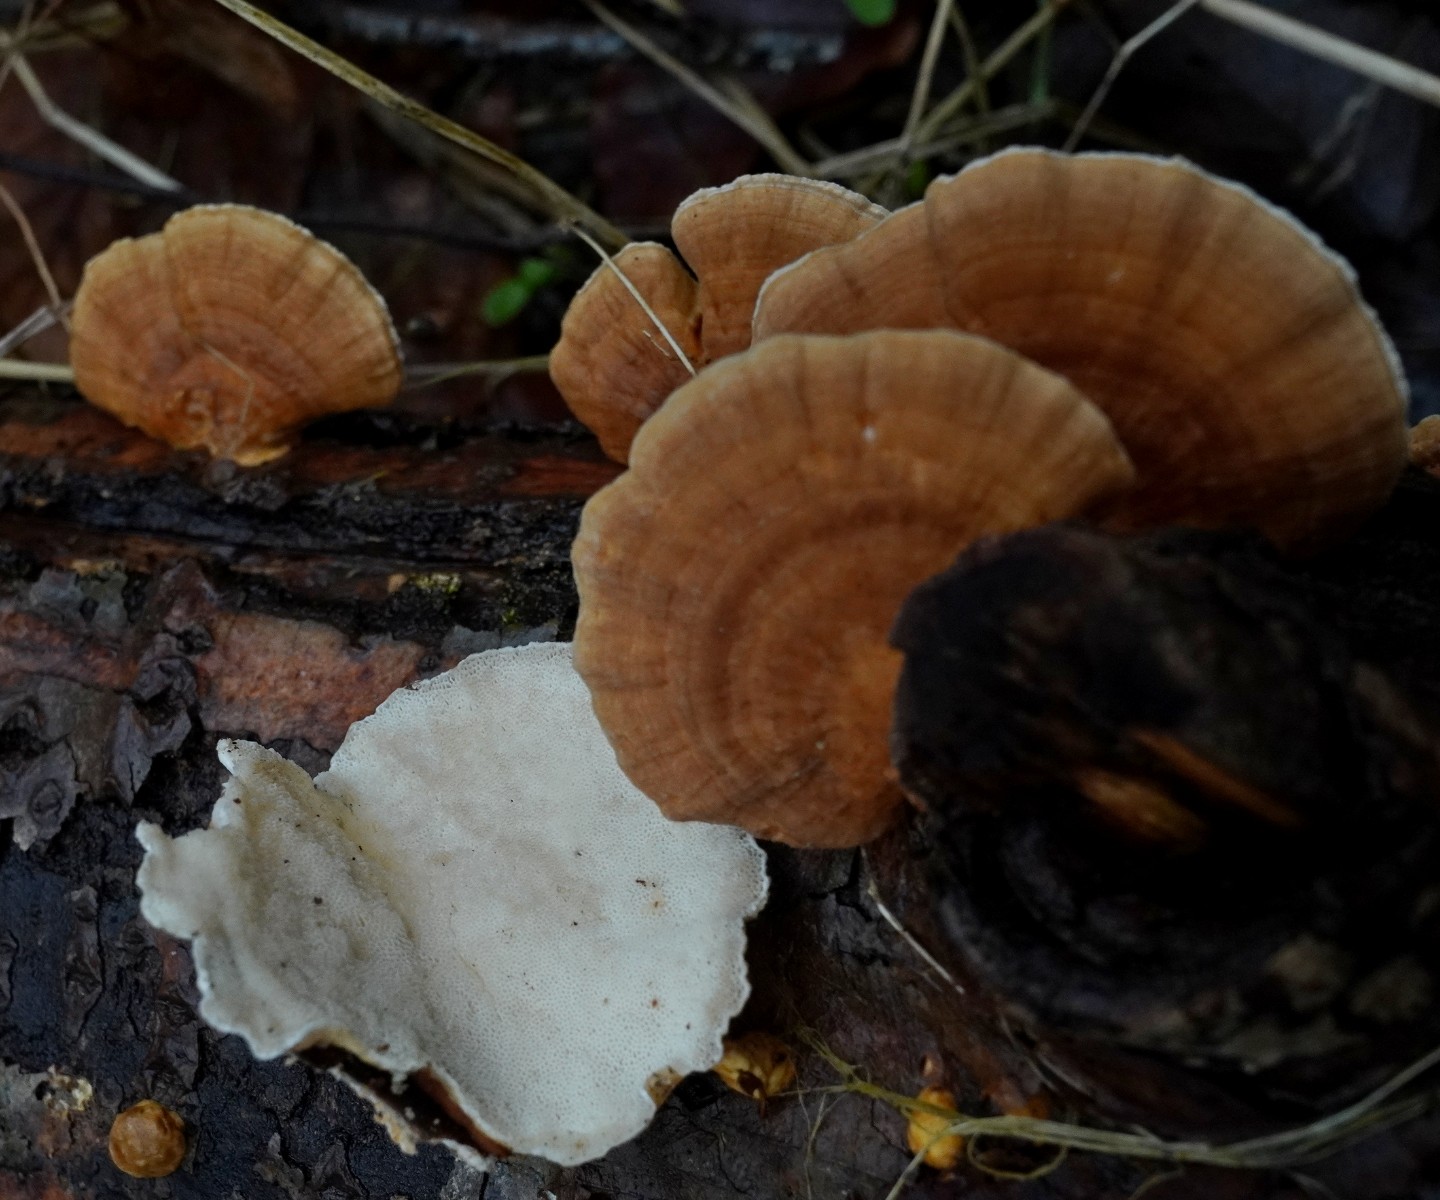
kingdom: Fungi
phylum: Basidiomycota
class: Agaricomycetes
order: Polyporales
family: Polyporaceae
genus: Trametes
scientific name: Trametes ochracea
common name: bæltet læderporesvamp
